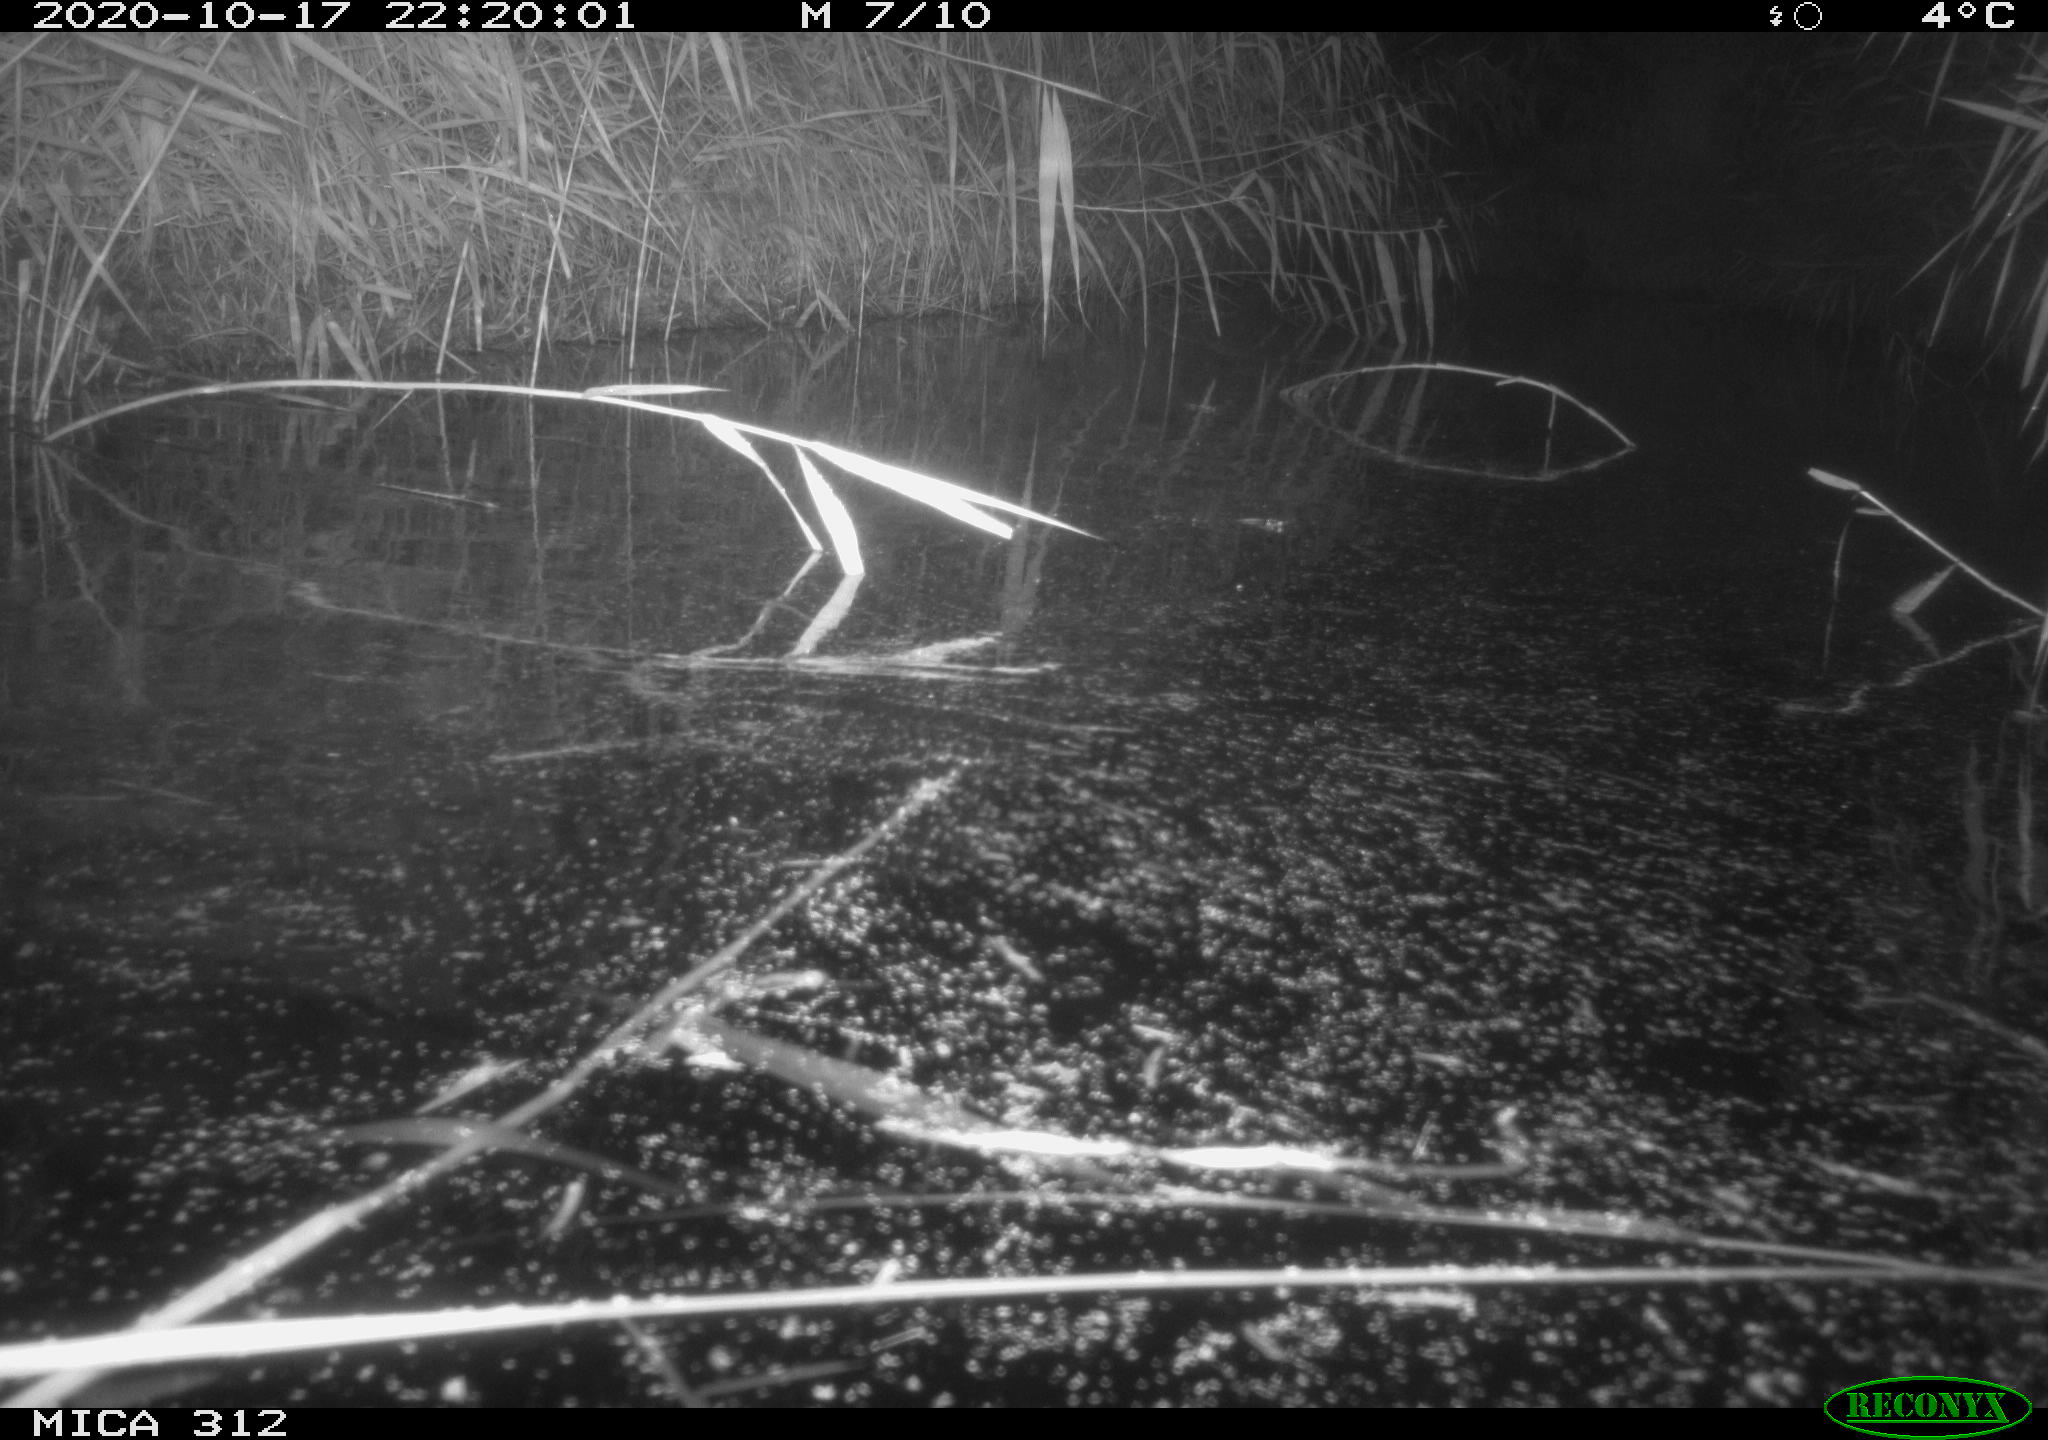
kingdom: Animalia
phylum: Chordata
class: Mammalia
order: Rodentia
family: Muridae
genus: Rattus
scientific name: Rattus norvegicus
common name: Brown rat
